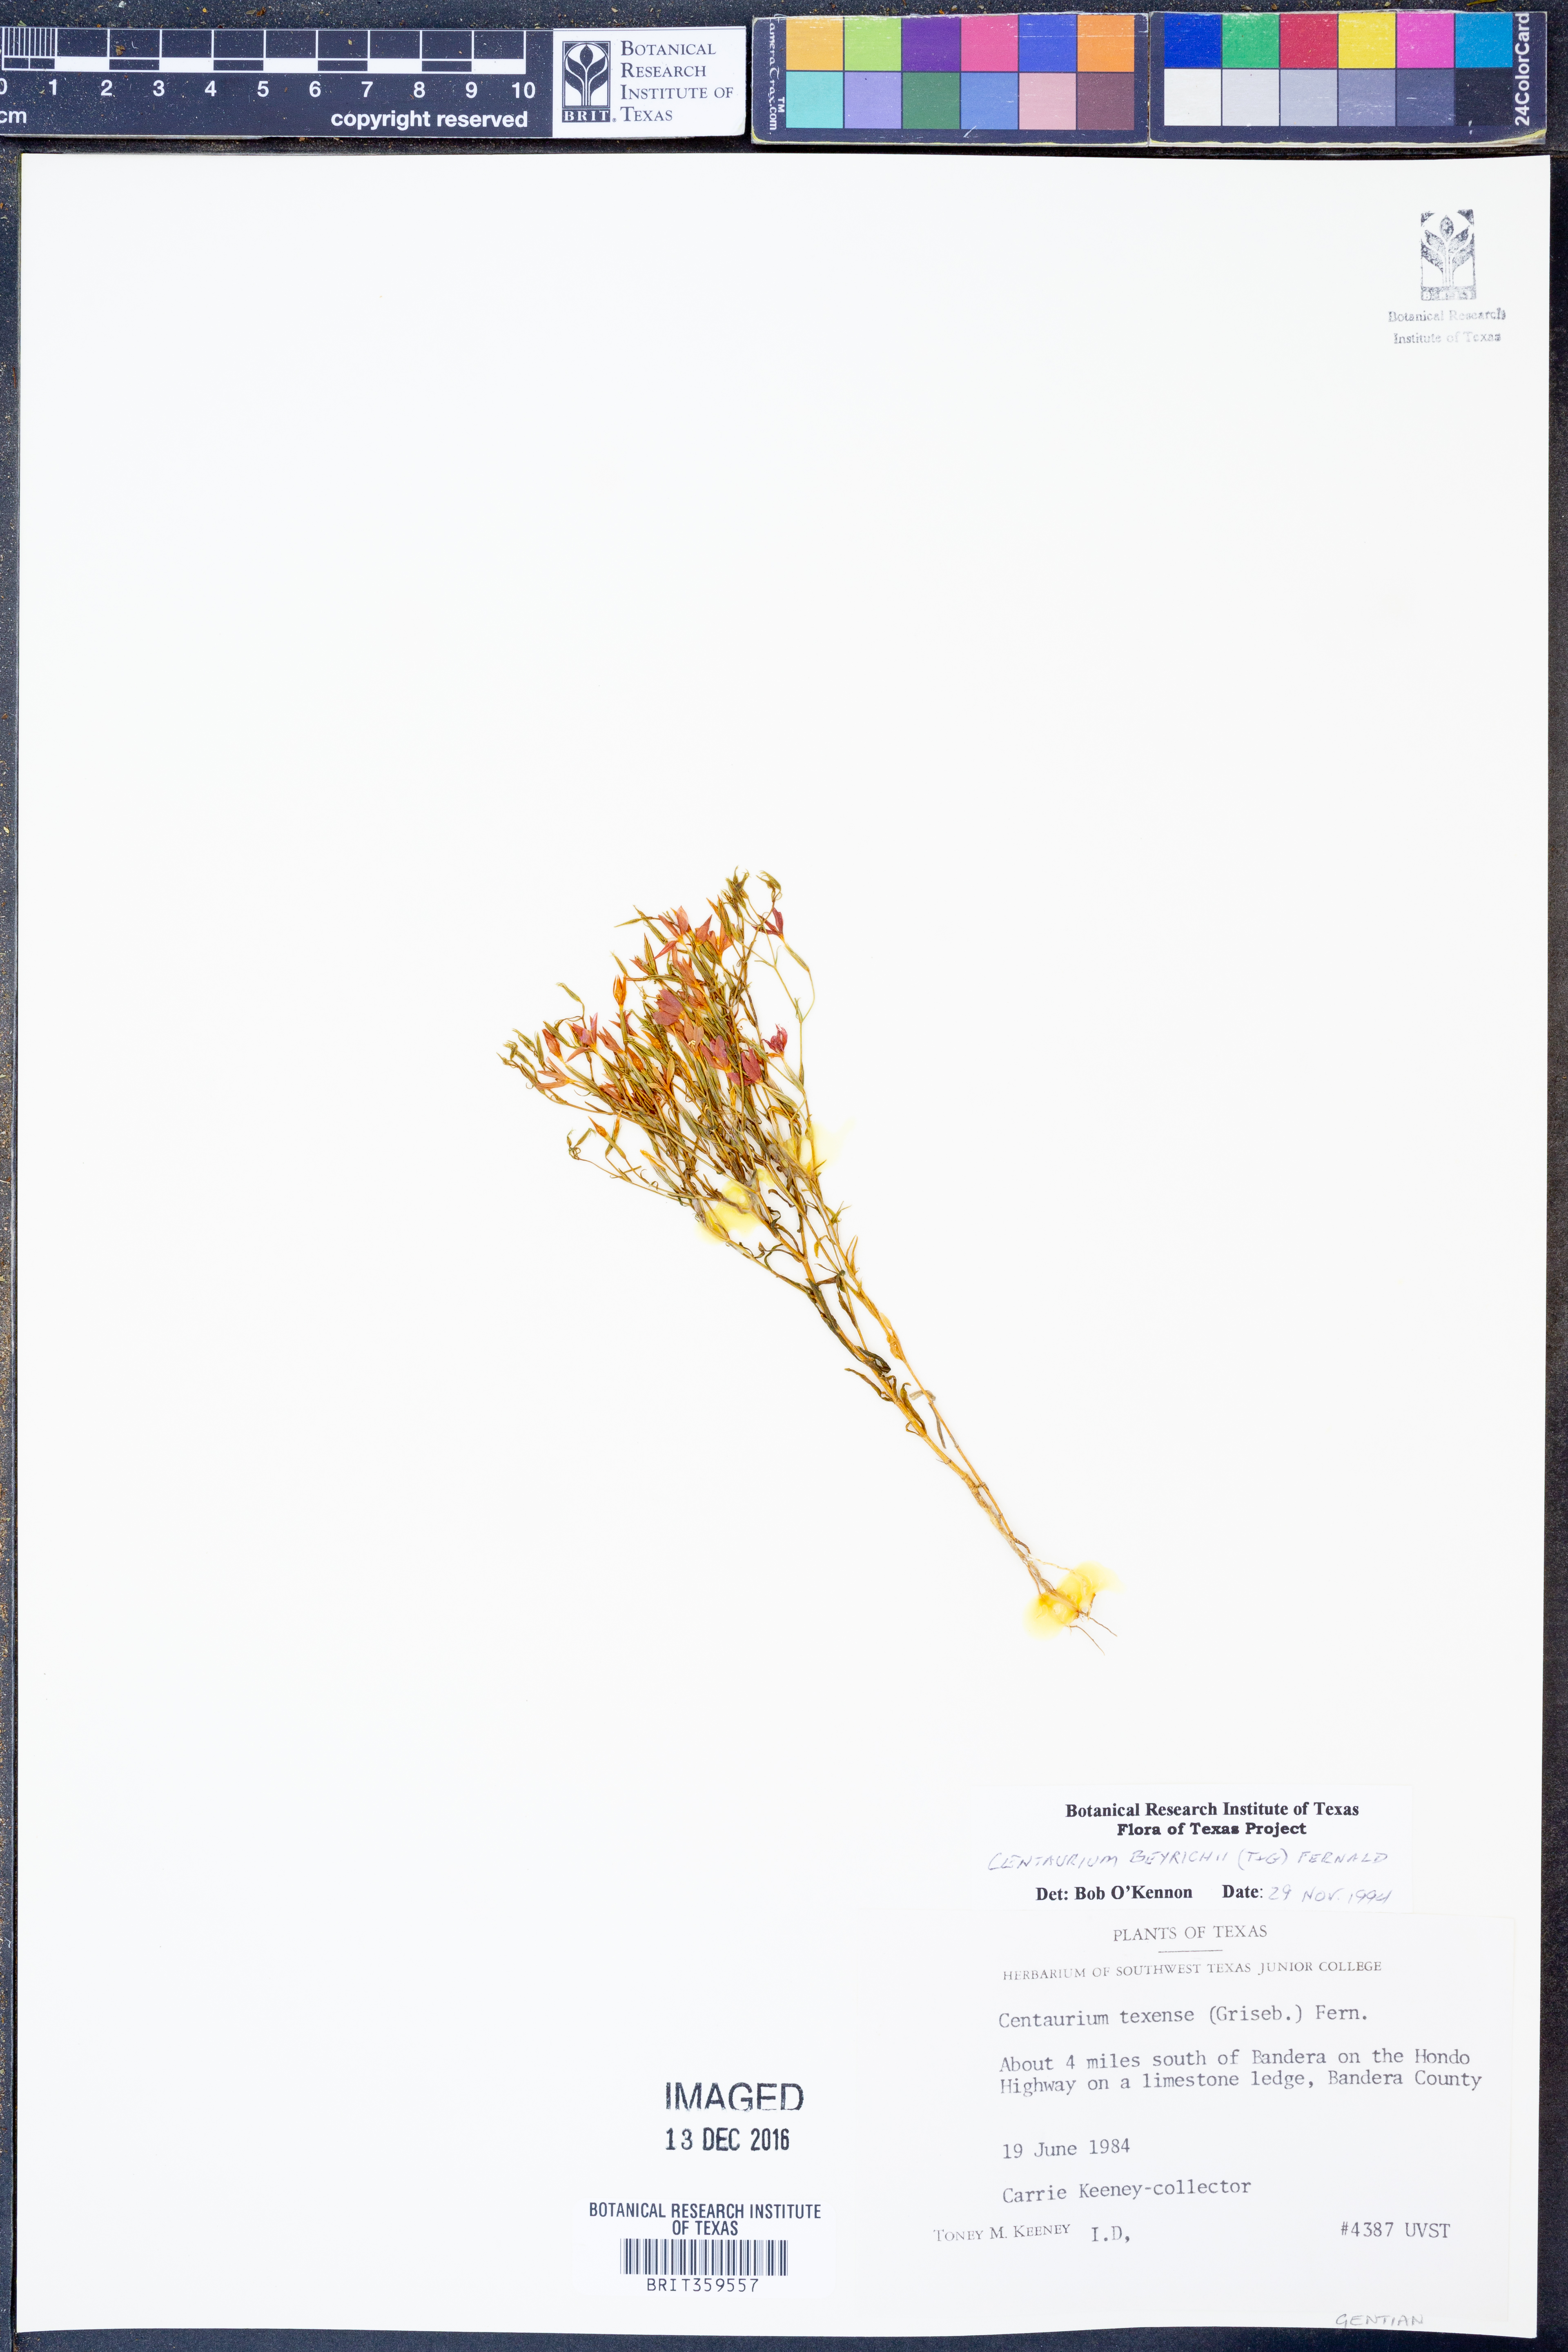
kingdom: Plantae
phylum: Tracheophyta
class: Magnoliopsida
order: Gentianales
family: Gentianaceae
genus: Zeltnera
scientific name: Zeltnera beyrichii
